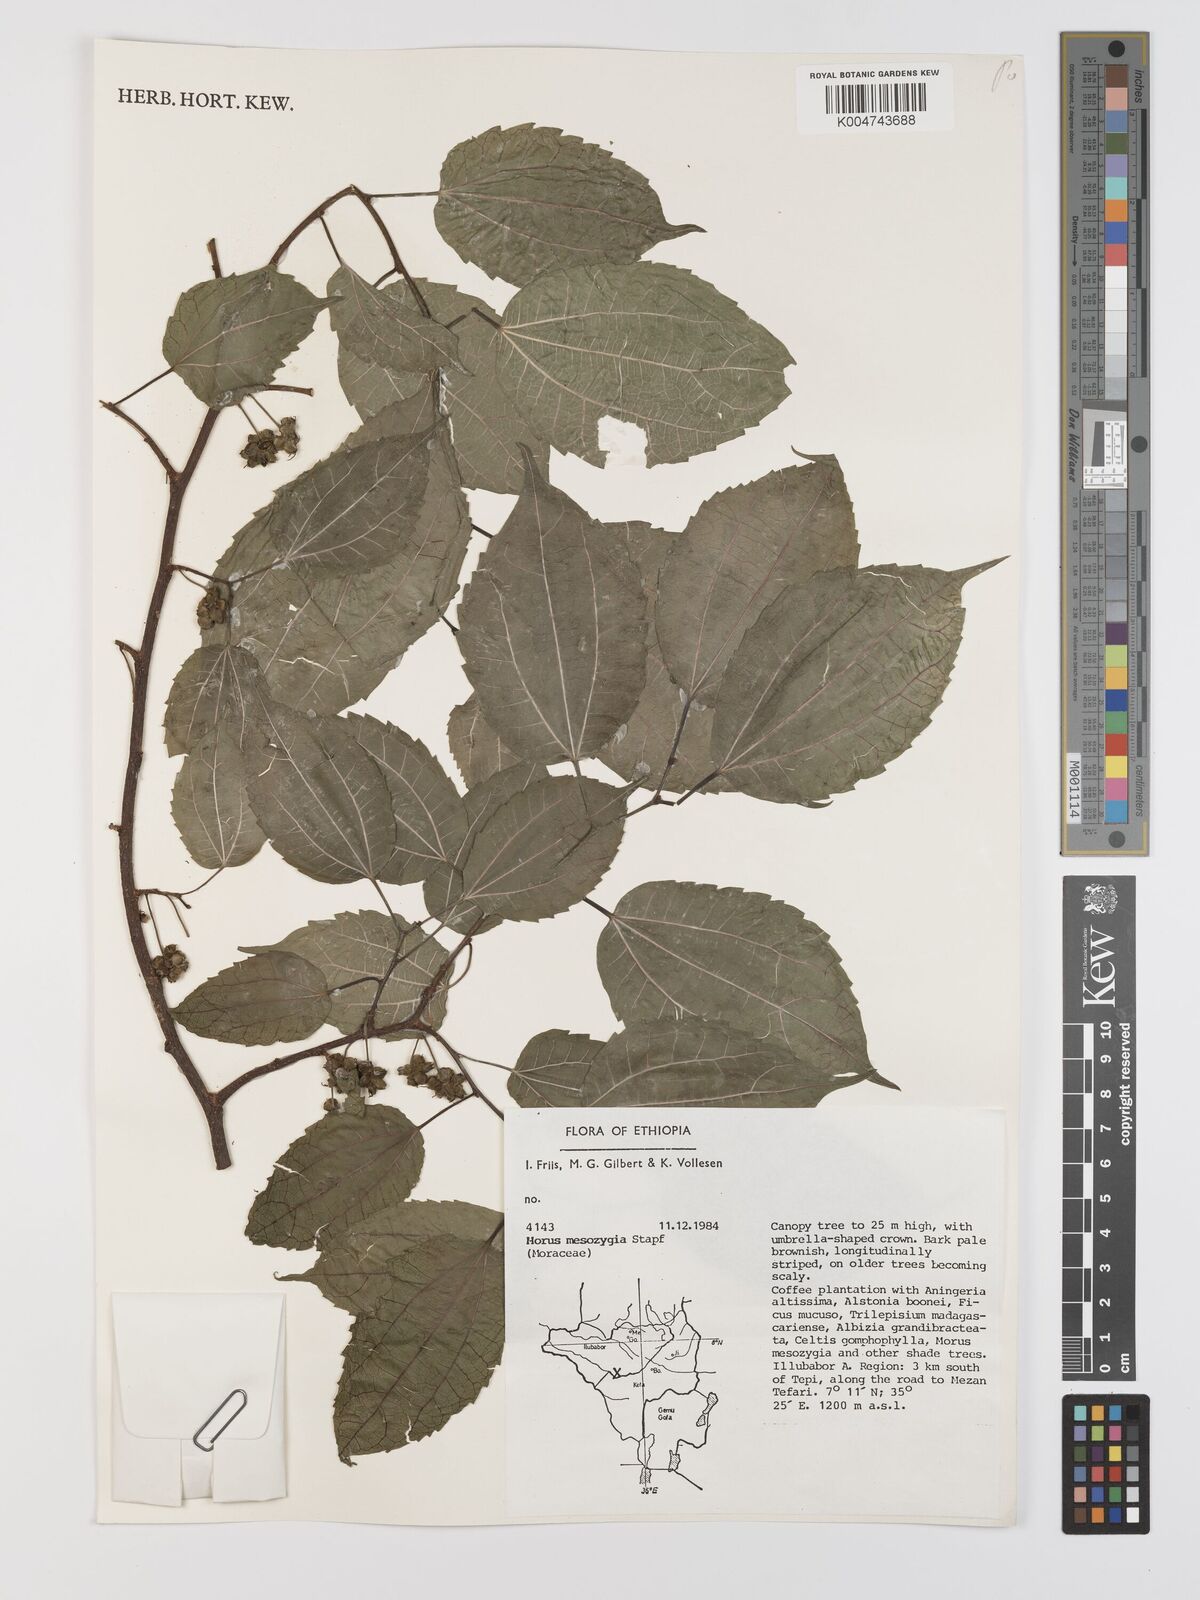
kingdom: Plantae
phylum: Tracheophyta
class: Magnoliopsida
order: Rosales
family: Moraceae
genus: Afromorus
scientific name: Afromorus mesozygia
